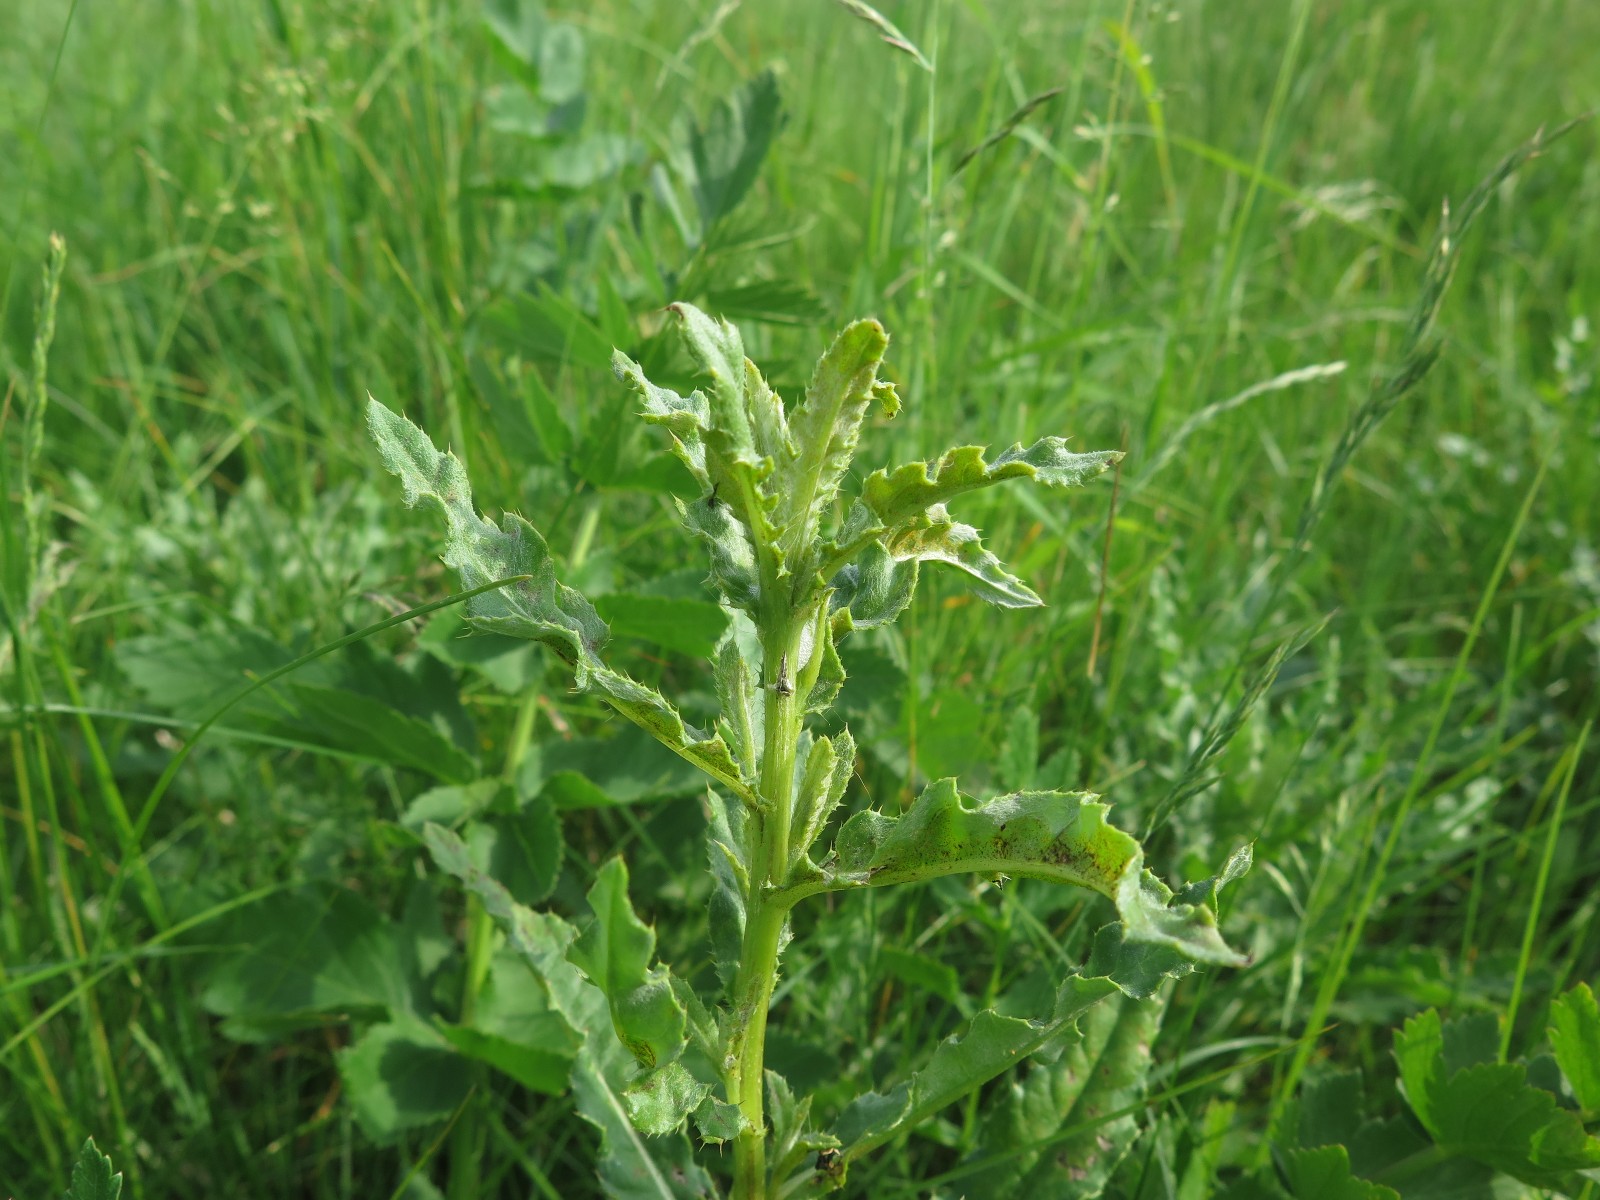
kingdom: Fungi
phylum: Basidiomycota
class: Pucciniomycetes
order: Pucciniales
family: Pucciniaceae
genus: Puccinia
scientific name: Puccinia suaveolens
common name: tidsel-tvecellerust
